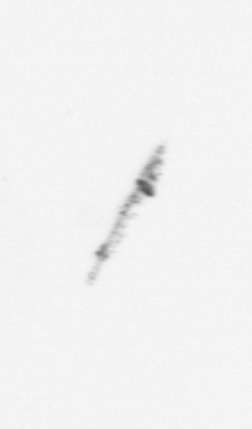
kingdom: Chromista
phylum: Ochrophyta
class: Bacillariophyceae
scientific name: Bacillariophyceae
